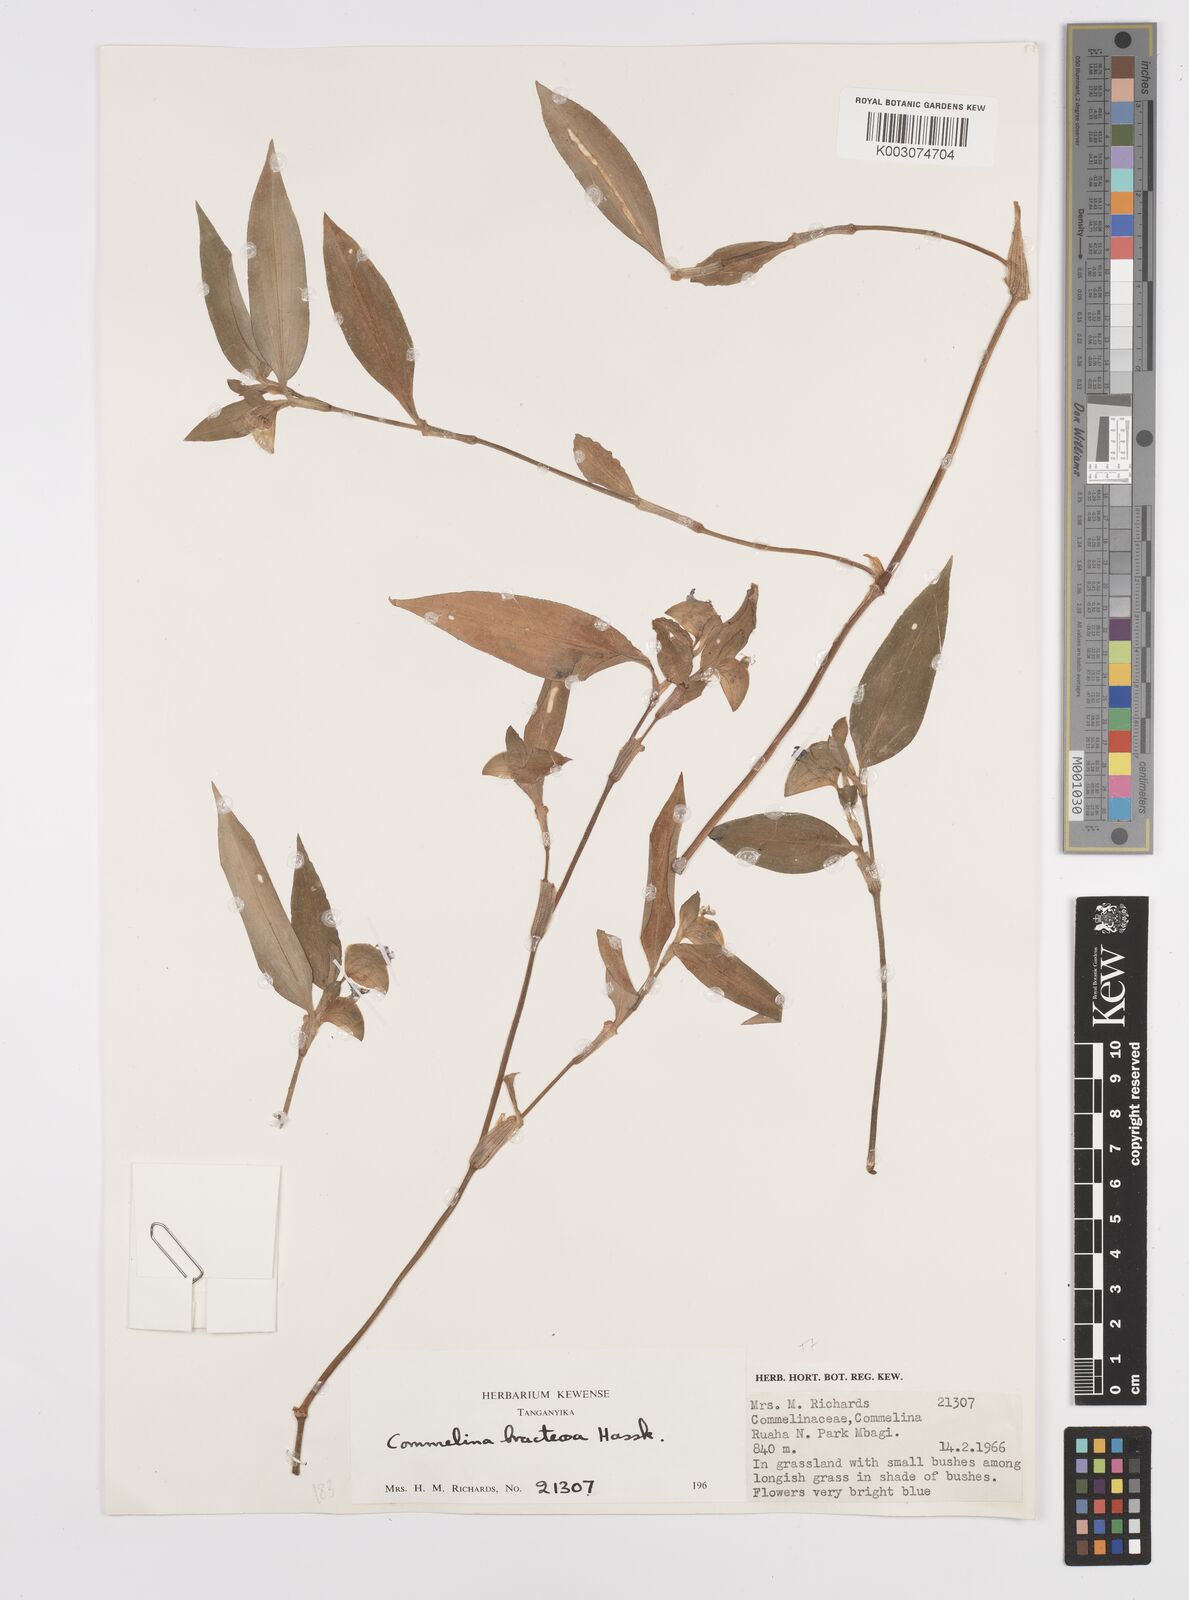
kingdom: Plantae
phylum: Tracheophyta
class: Liliopsida
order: Commelinales
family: Commelinaceae
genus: Commelina
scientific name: Commelina bracteosa
